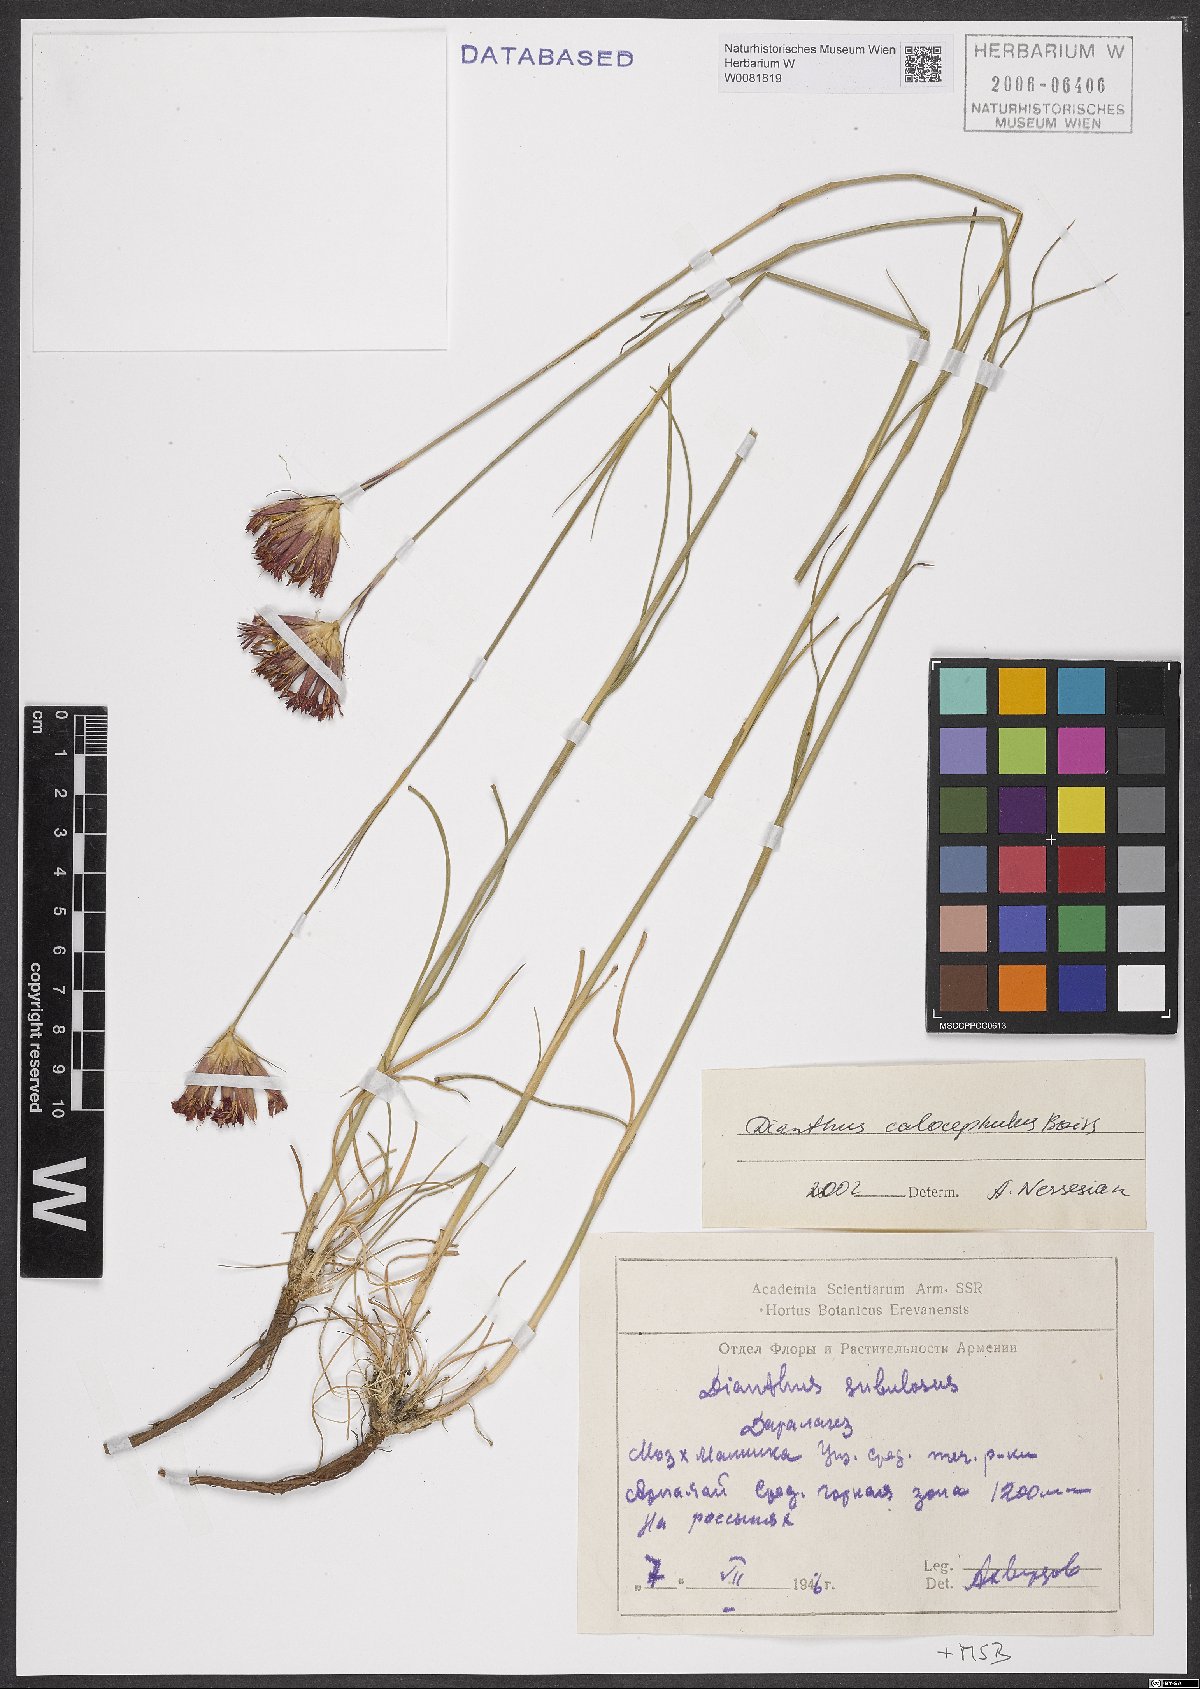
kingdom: Plantae
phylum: Tracheophyta
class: Magnoliopsida
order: Caryophyllales
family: Caryophyllaceae
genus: Dianthus
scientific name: Dianthus cruentus
